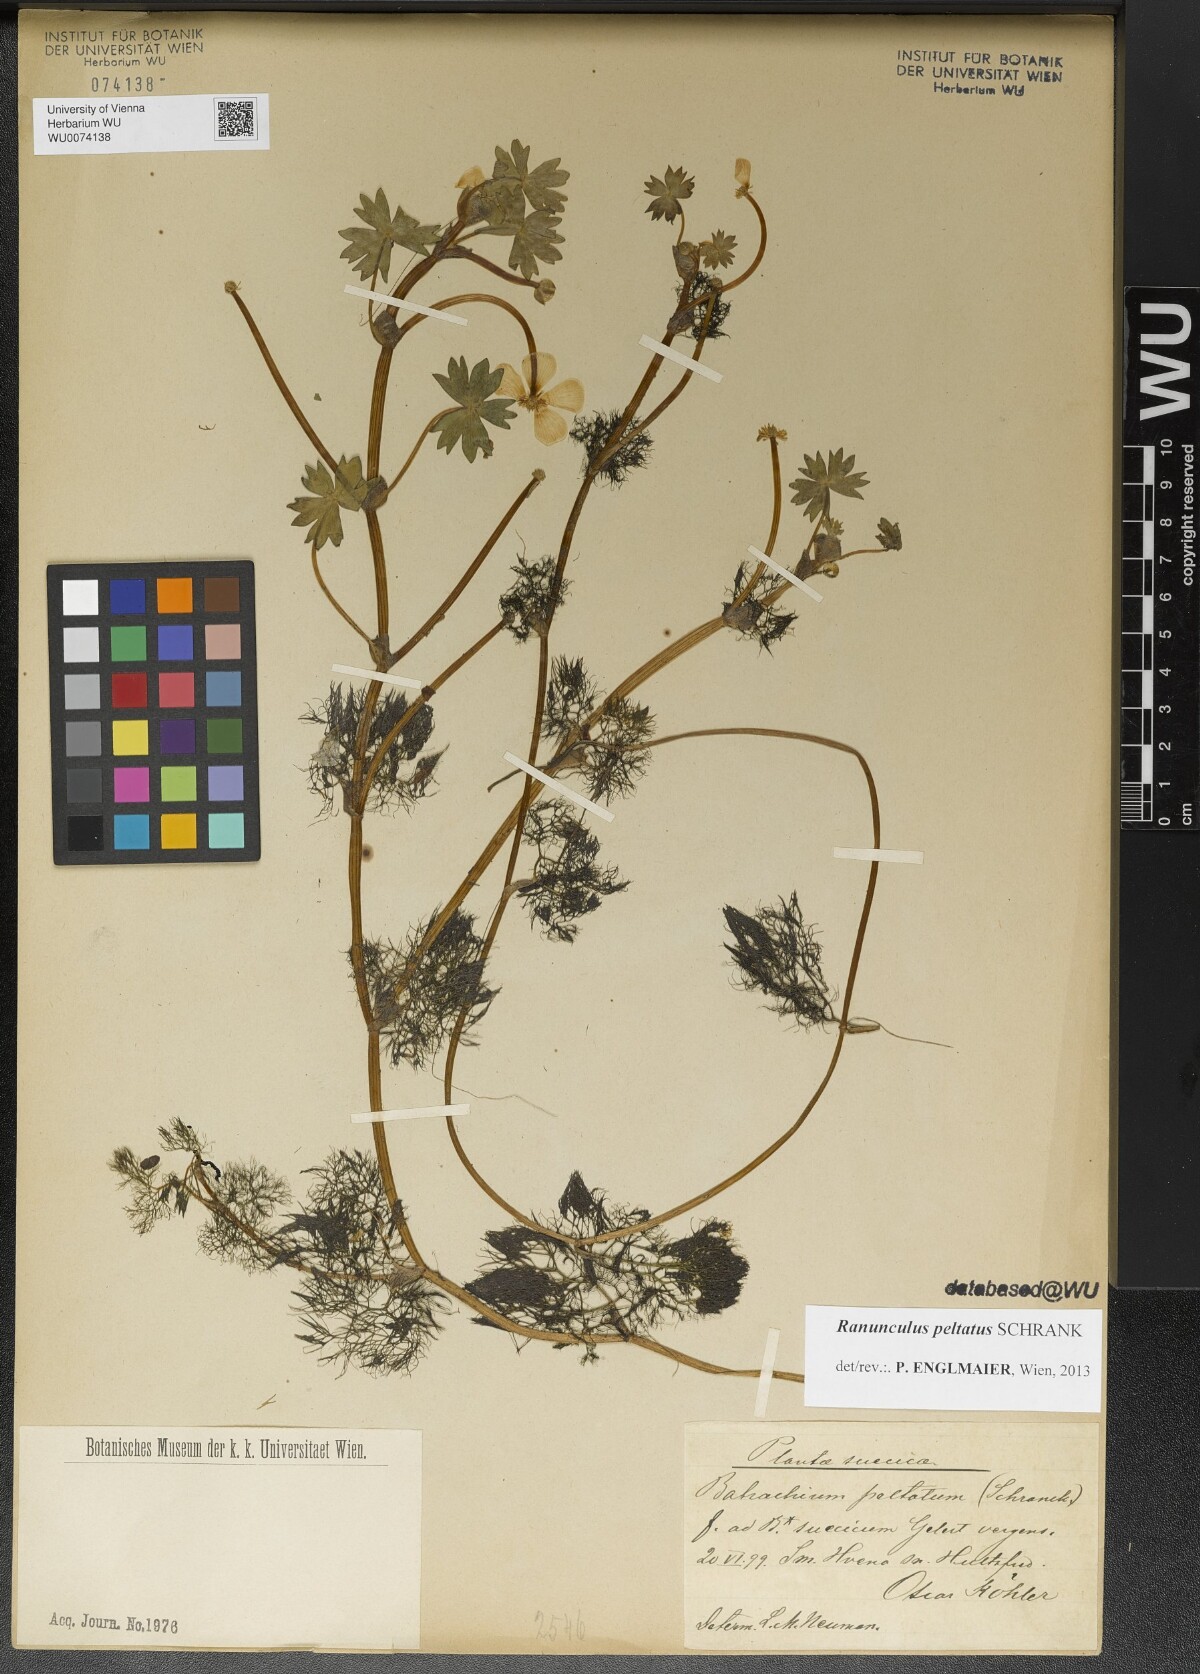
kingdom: Plantae
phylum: Tracheophyta
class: Magnoliopsida
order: Ranunculales
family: Ranunculaceae
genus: Ranunculus
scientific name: Ranunculus peltatus
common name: Pond water-crowfoot
